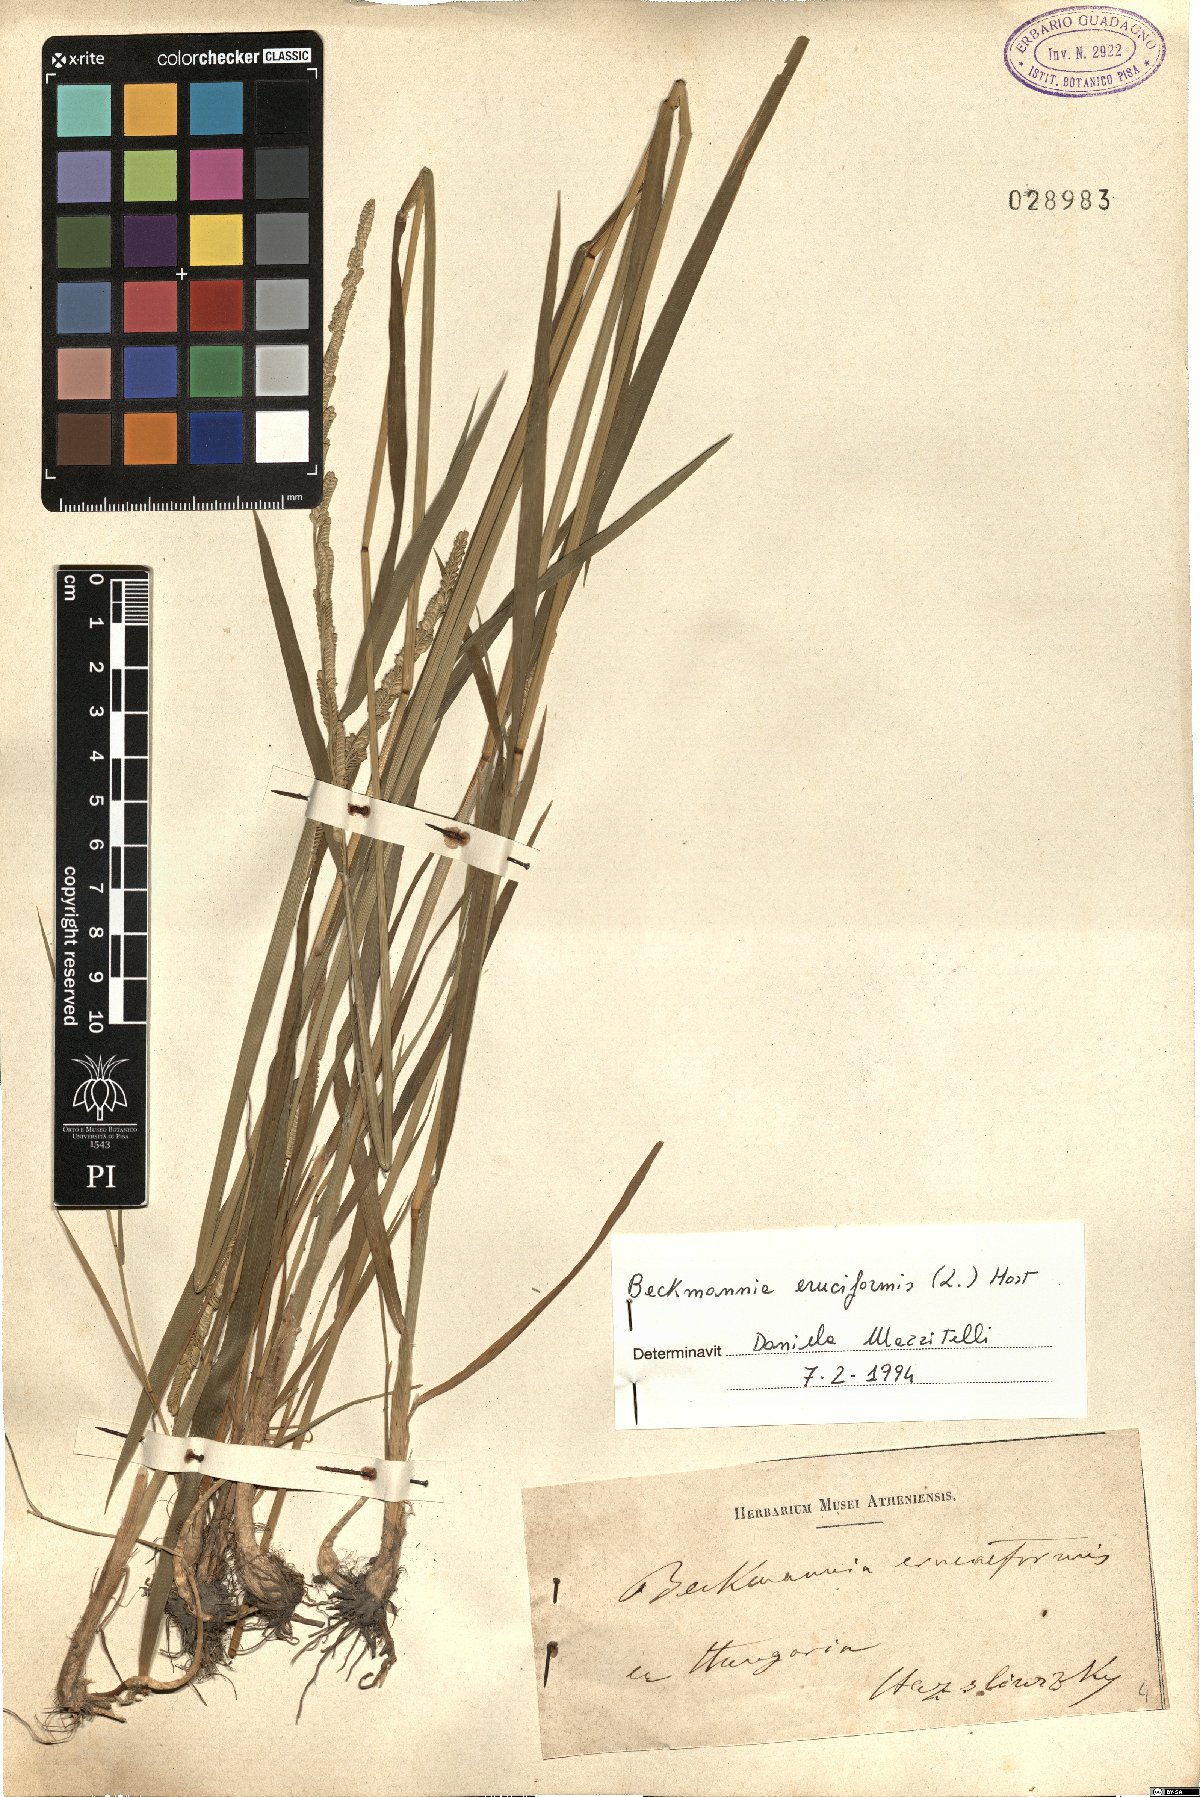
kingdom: Plantae
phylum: Tracheophyta
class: Liliopsida
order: Poales
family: Poaceae
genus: Beckmannia
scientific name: Beckmannia eruciformis
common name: European slough-grass
